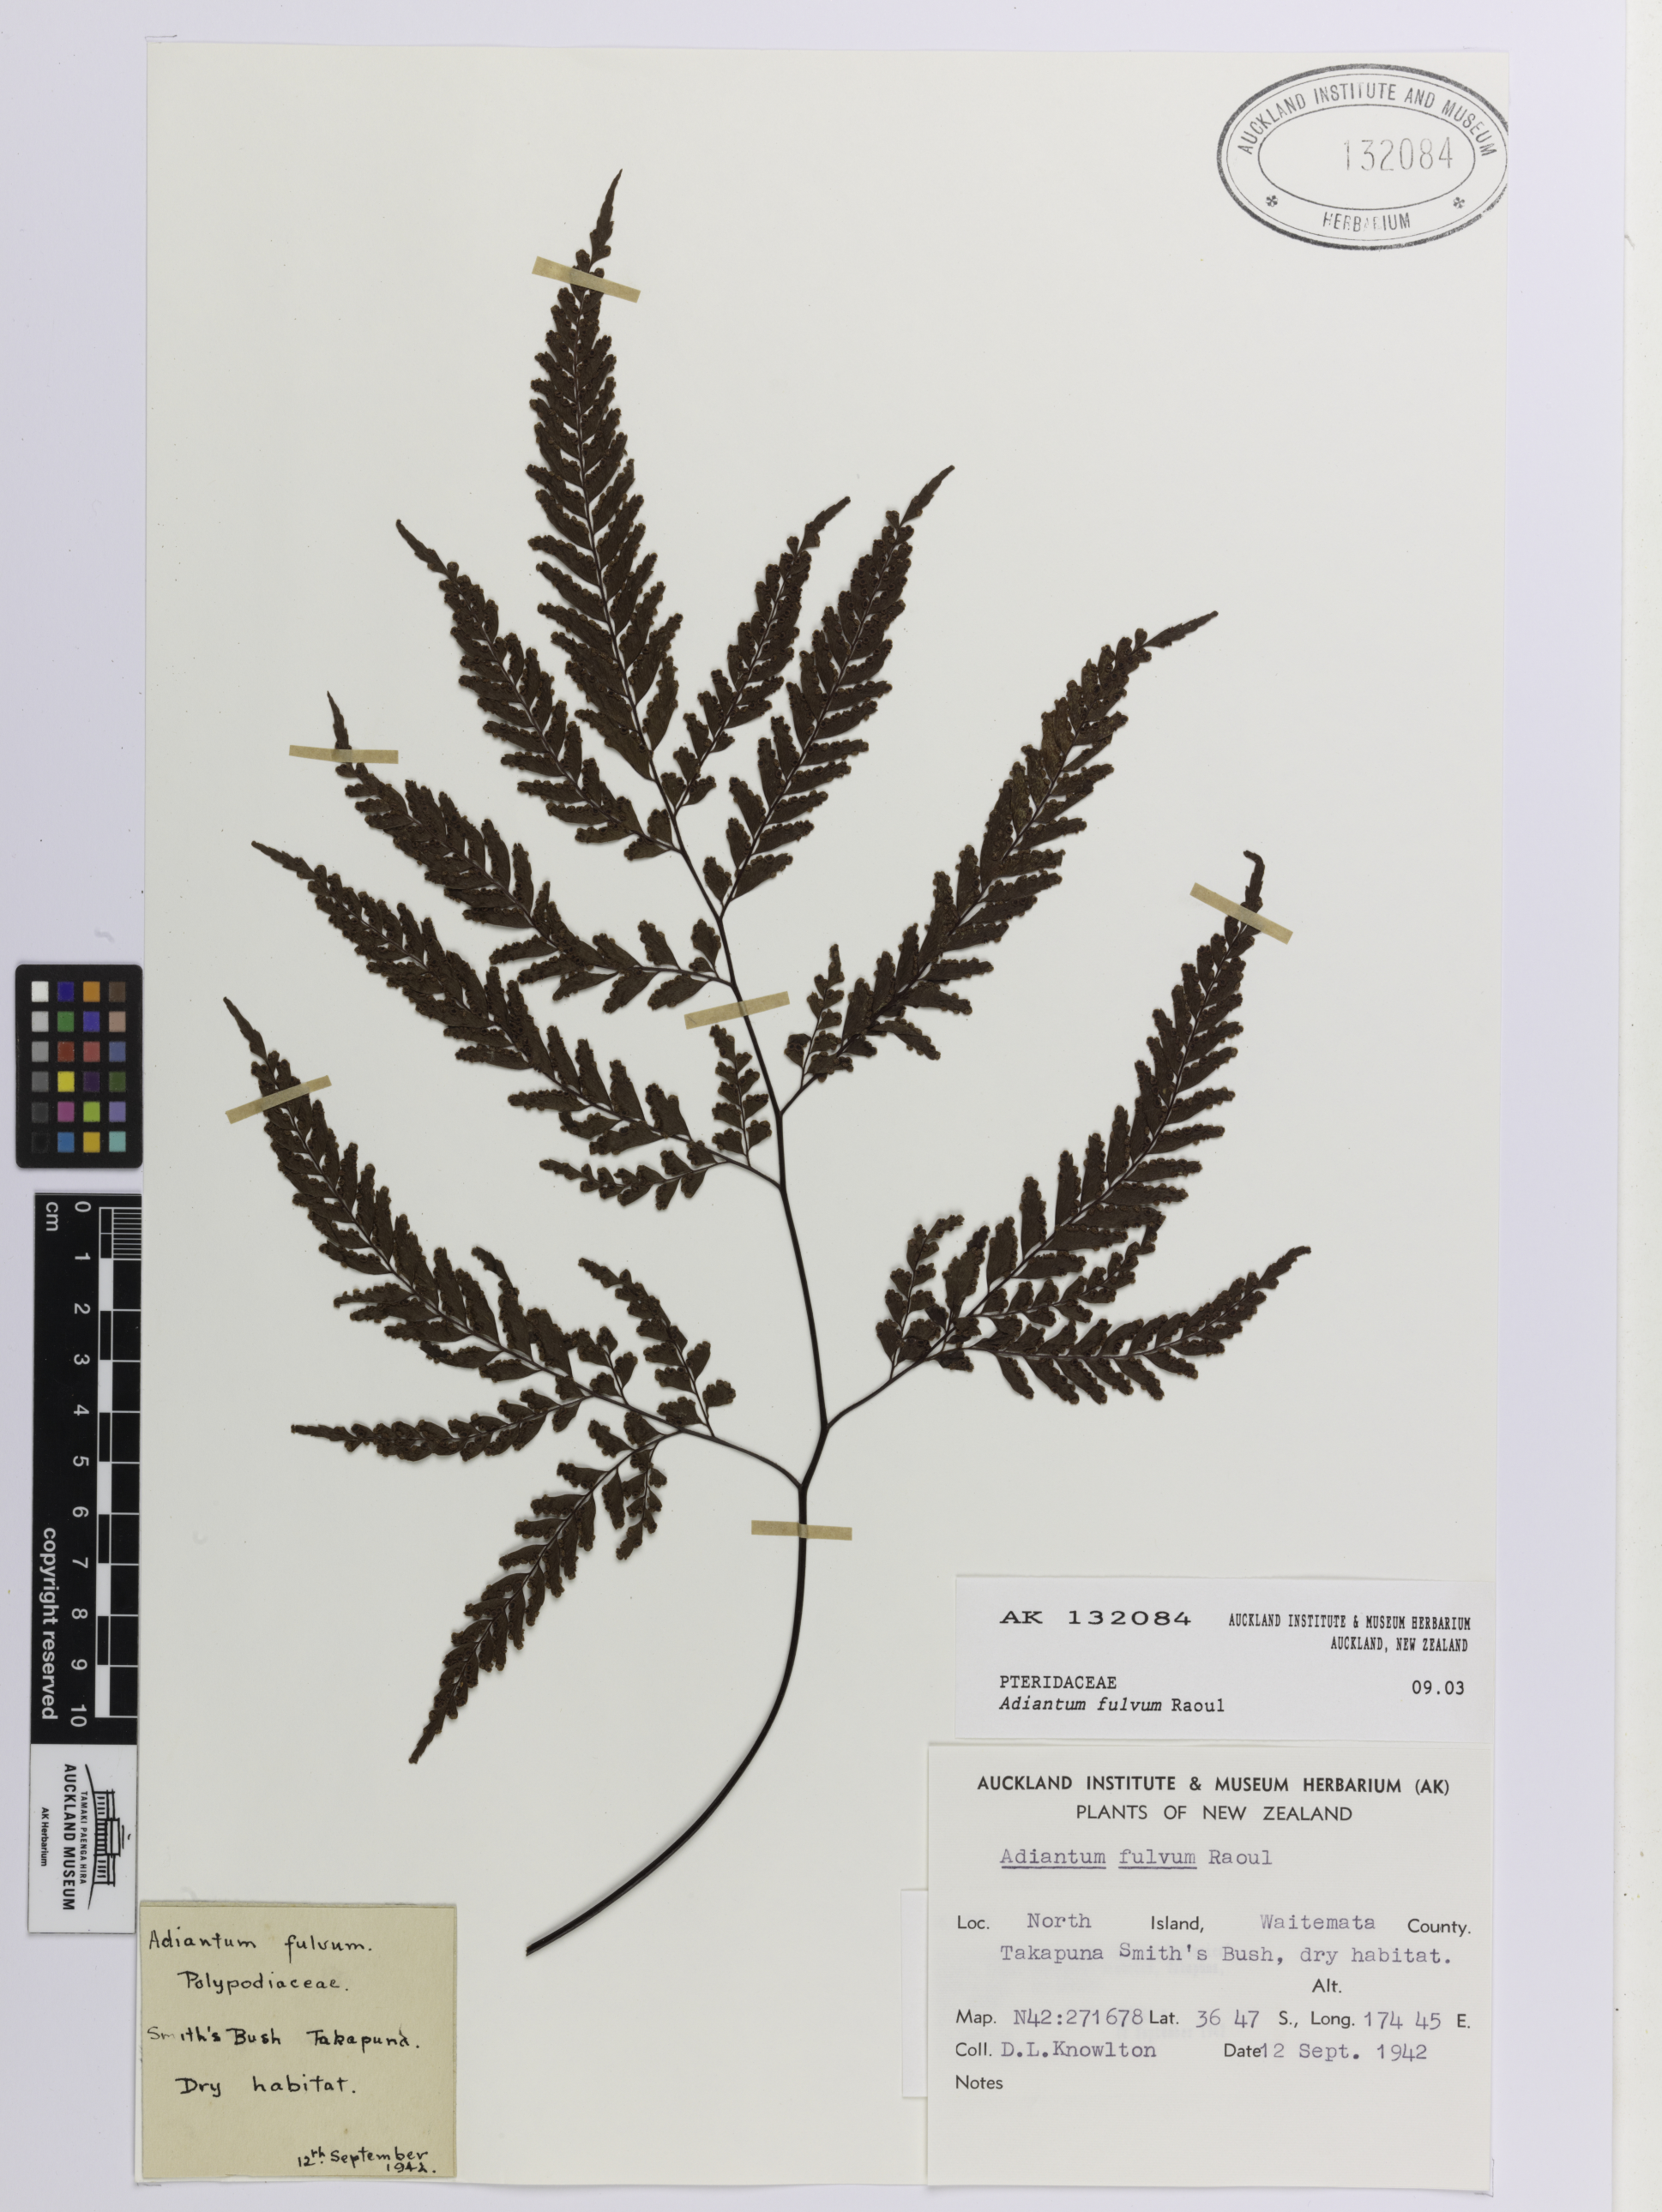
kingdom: Plantae
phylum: Tracheophyta
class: Polypodiopsida
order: Polypodiales
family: Pteridaceae
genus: Adiantum
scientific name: Adiantum fulvum
